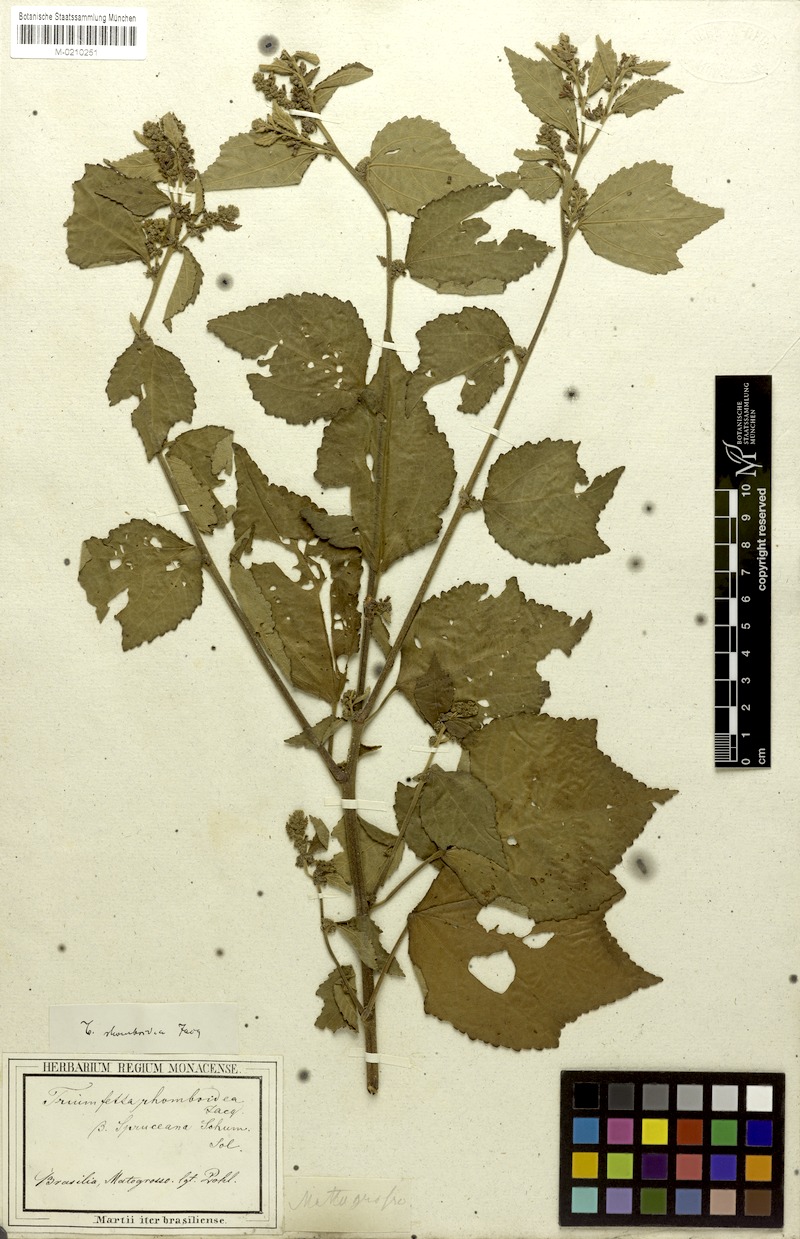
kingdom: Plantae
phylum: Tracheophyta
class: Magnoliopsida
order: Malvales
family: Malvaceae
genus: Triumfetta
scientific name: Triumfetta rhomboidea
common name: Diamond burbark
